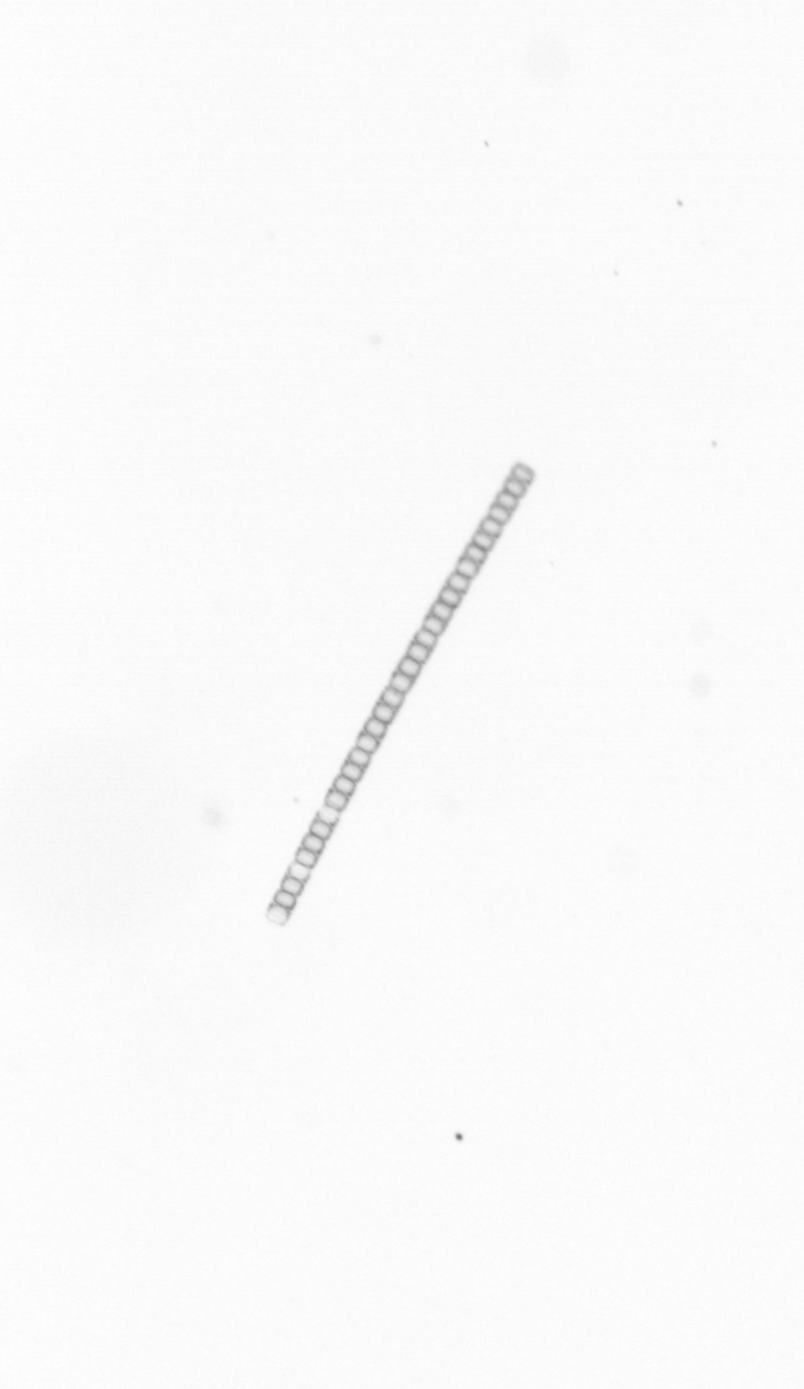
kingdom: Chromista
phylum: Ochrophyta
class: Bacillariophyceae
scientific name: Bacillariophyceae
